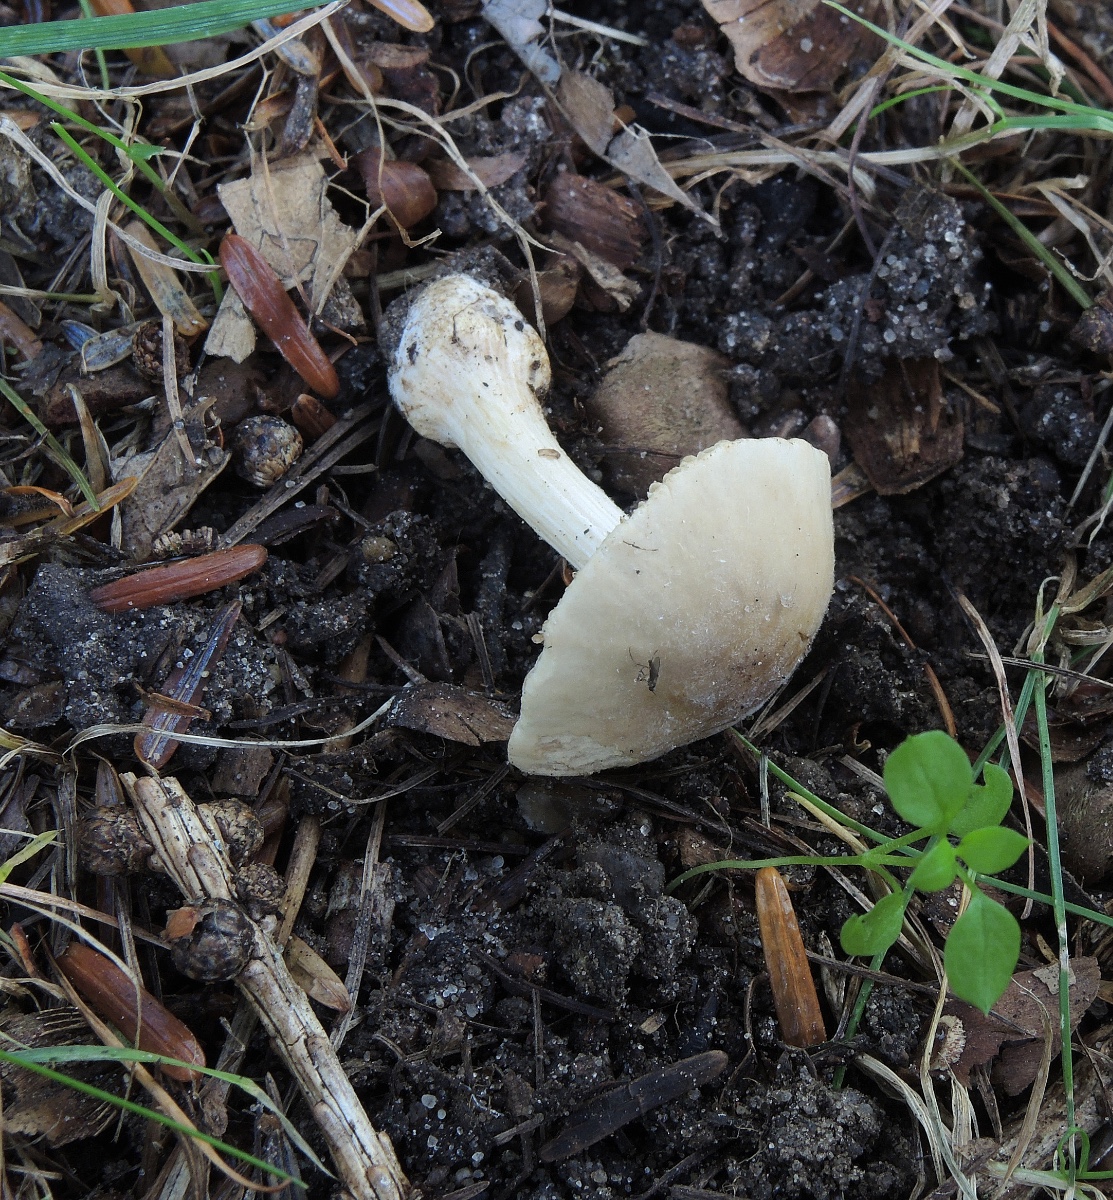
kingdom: Fungi
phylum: Basidiomycota
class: Agaricomycetes
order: Agaricales
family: Bolbitiaceae
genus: Conocybe
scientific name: Conocybe inocybeoides
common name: knold-keglehat
